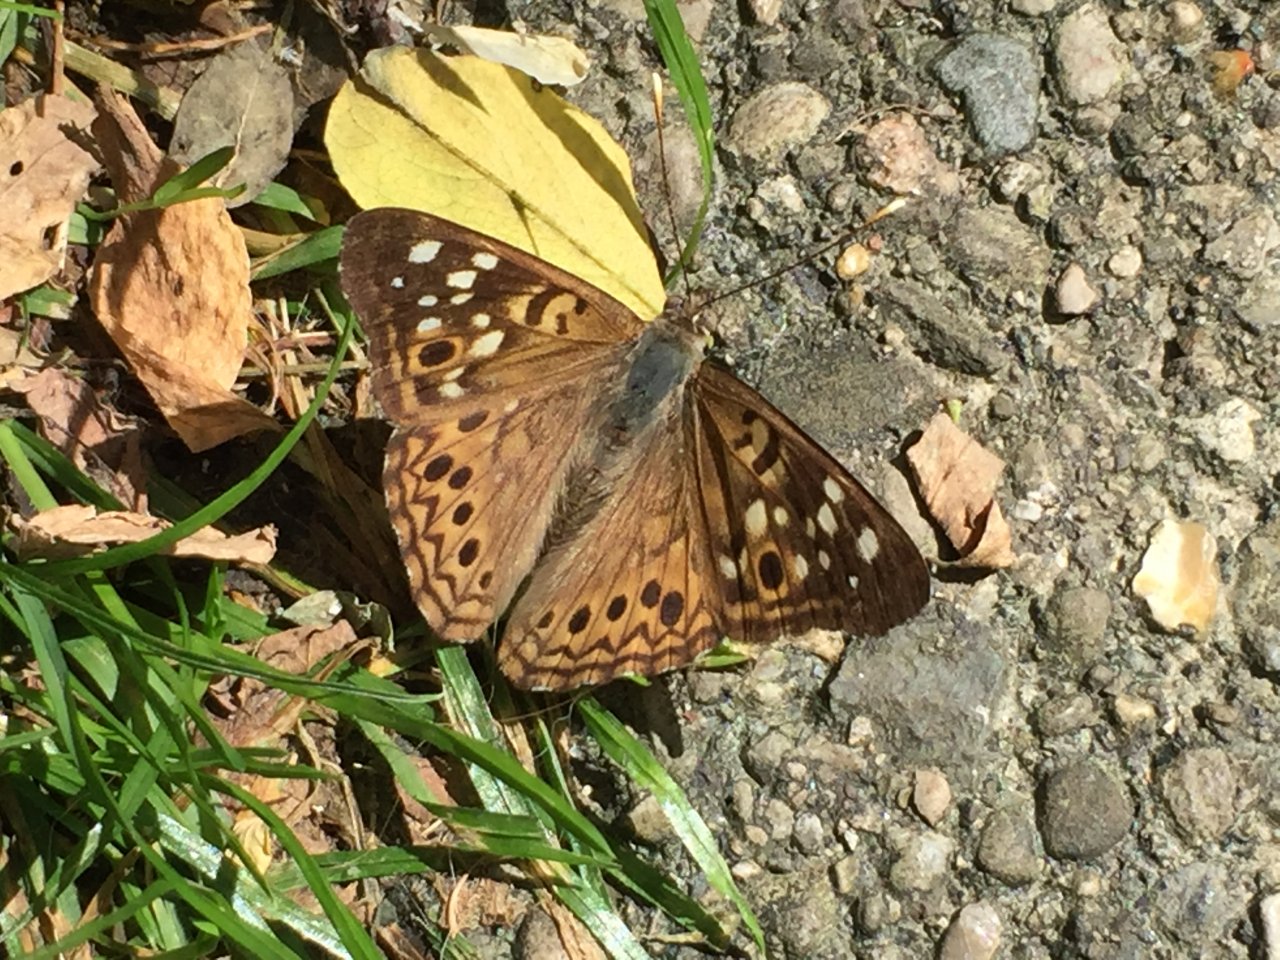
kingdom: Animalia
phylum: Arthropoda
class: Insecta
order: Lepidoptera
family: Nymphalidae
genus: Asterocampa
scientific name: Asterocampa celtis
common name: Hackberry Emperor
